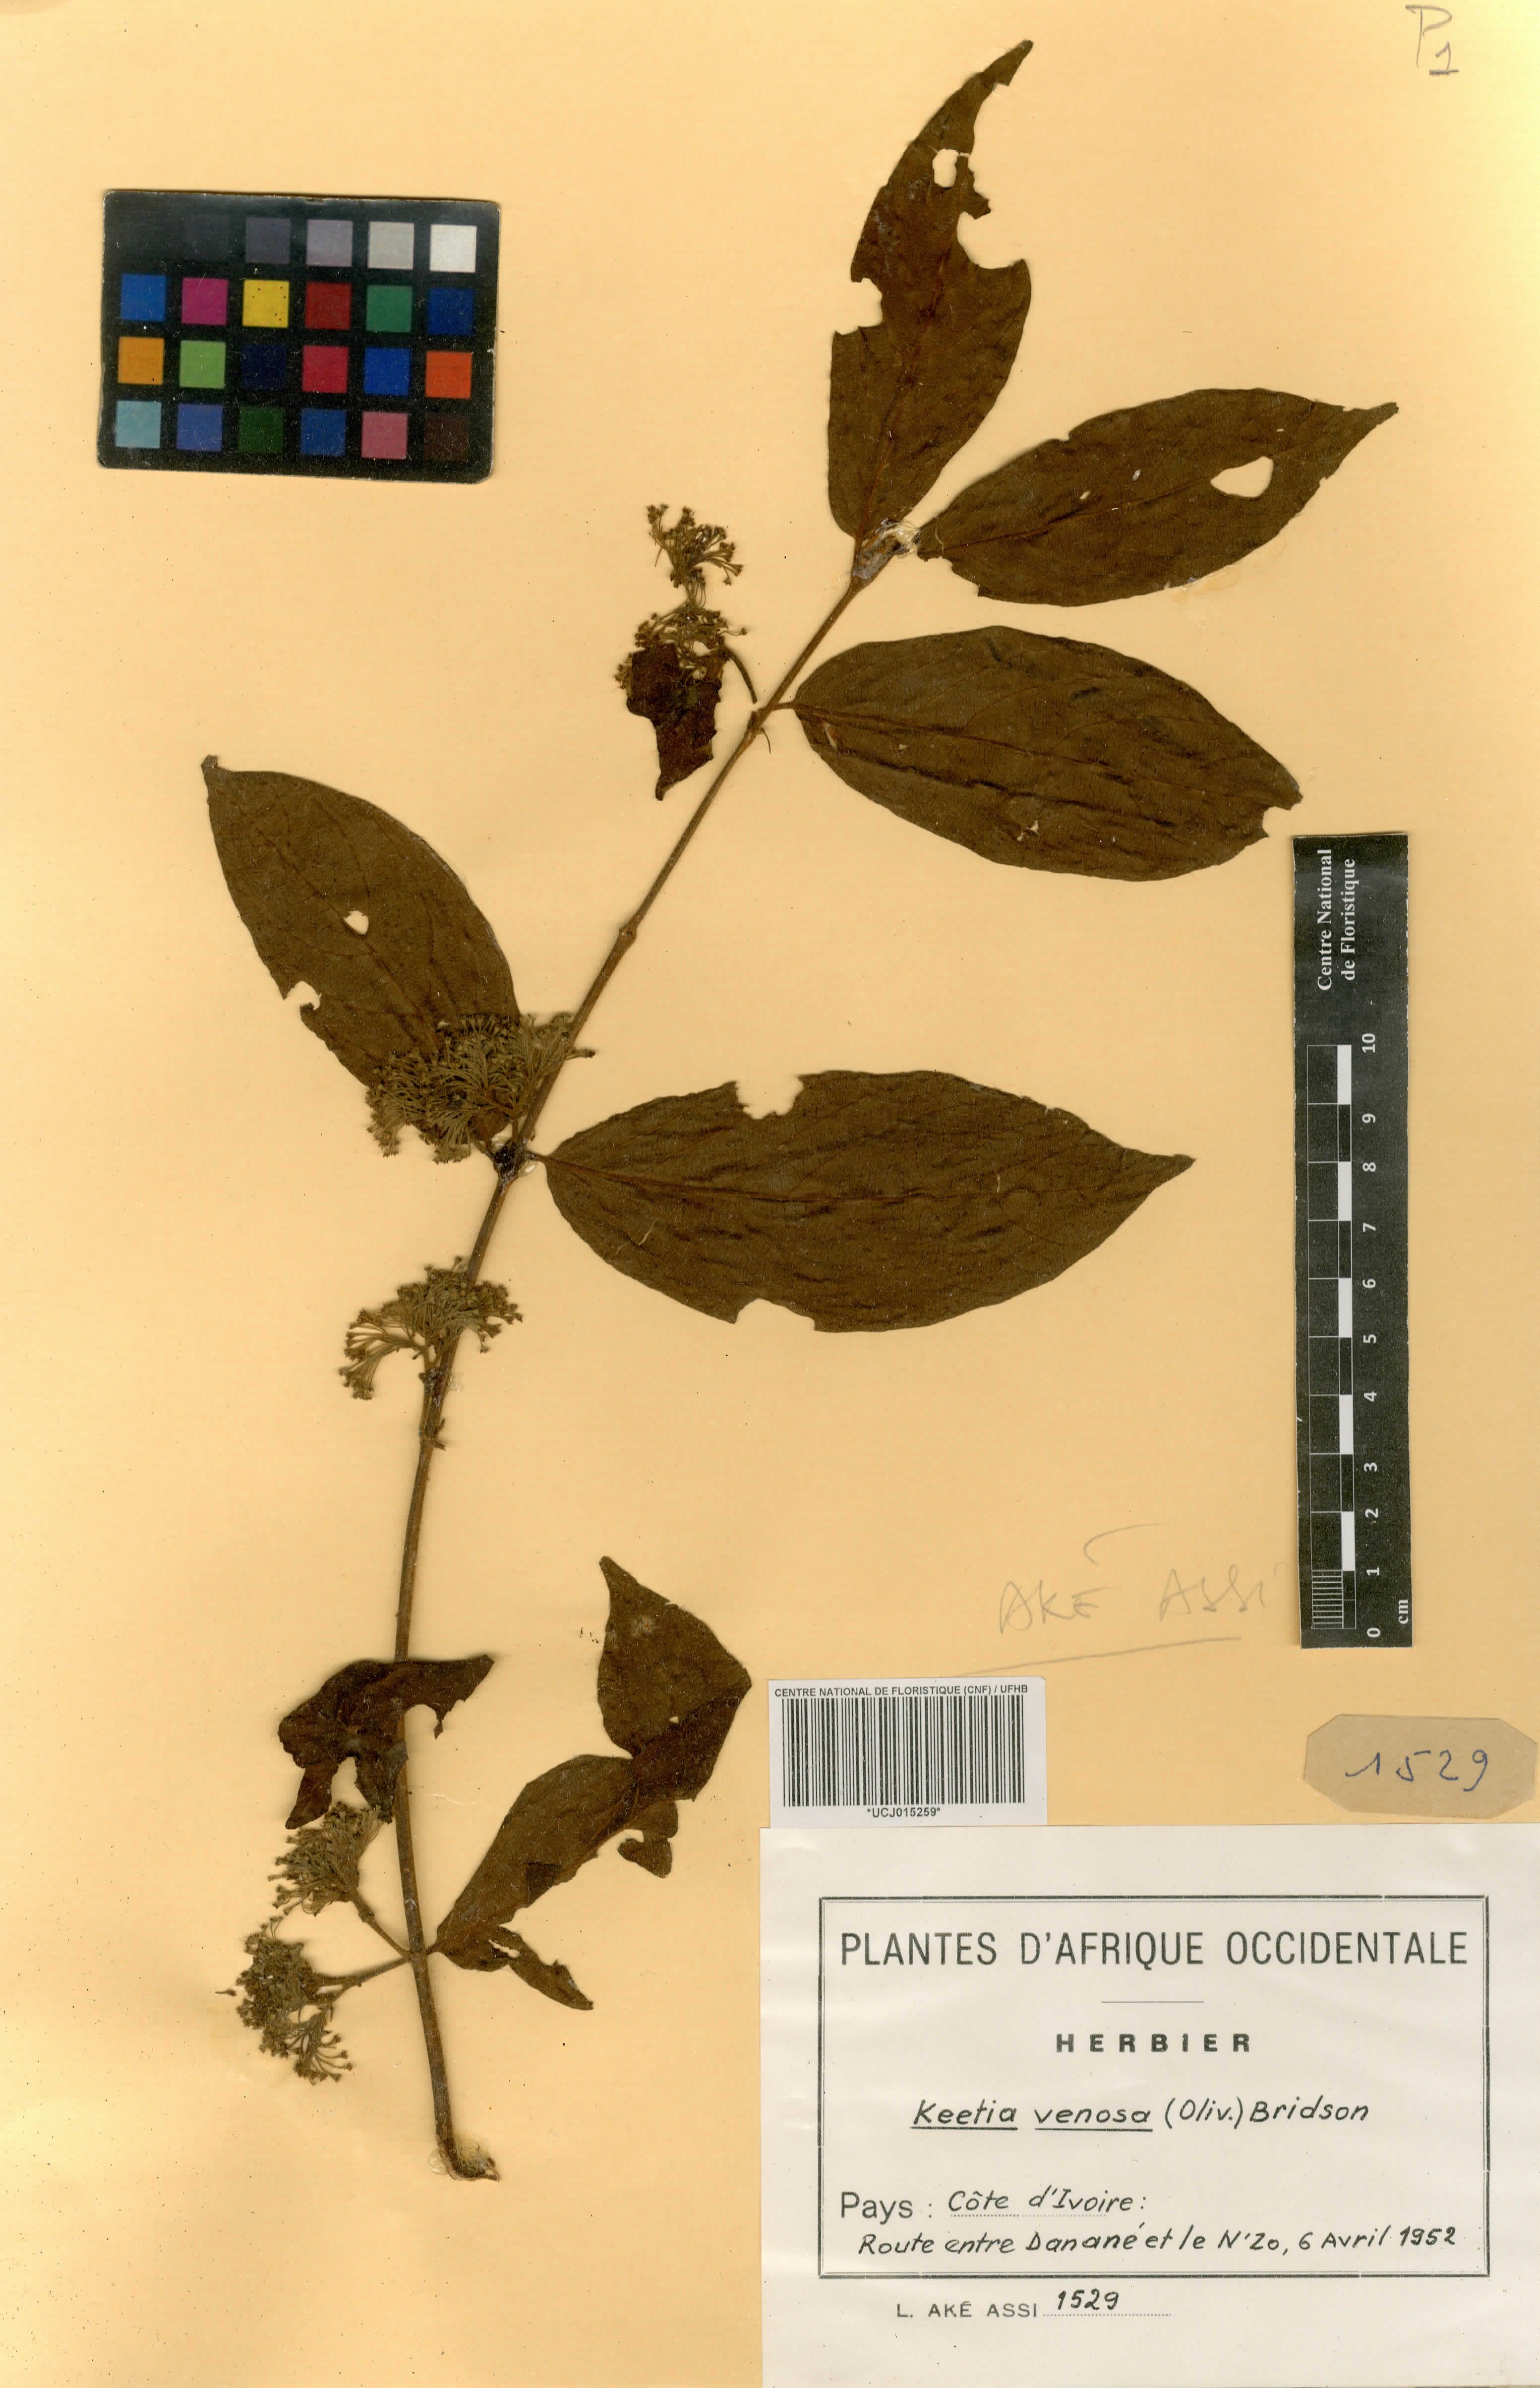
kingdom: Plantae
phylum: Tracheophyta
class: Magnoliopsida
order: Gentianales
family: Rubiaceae
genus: Keetia
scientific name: Keetia venosa
